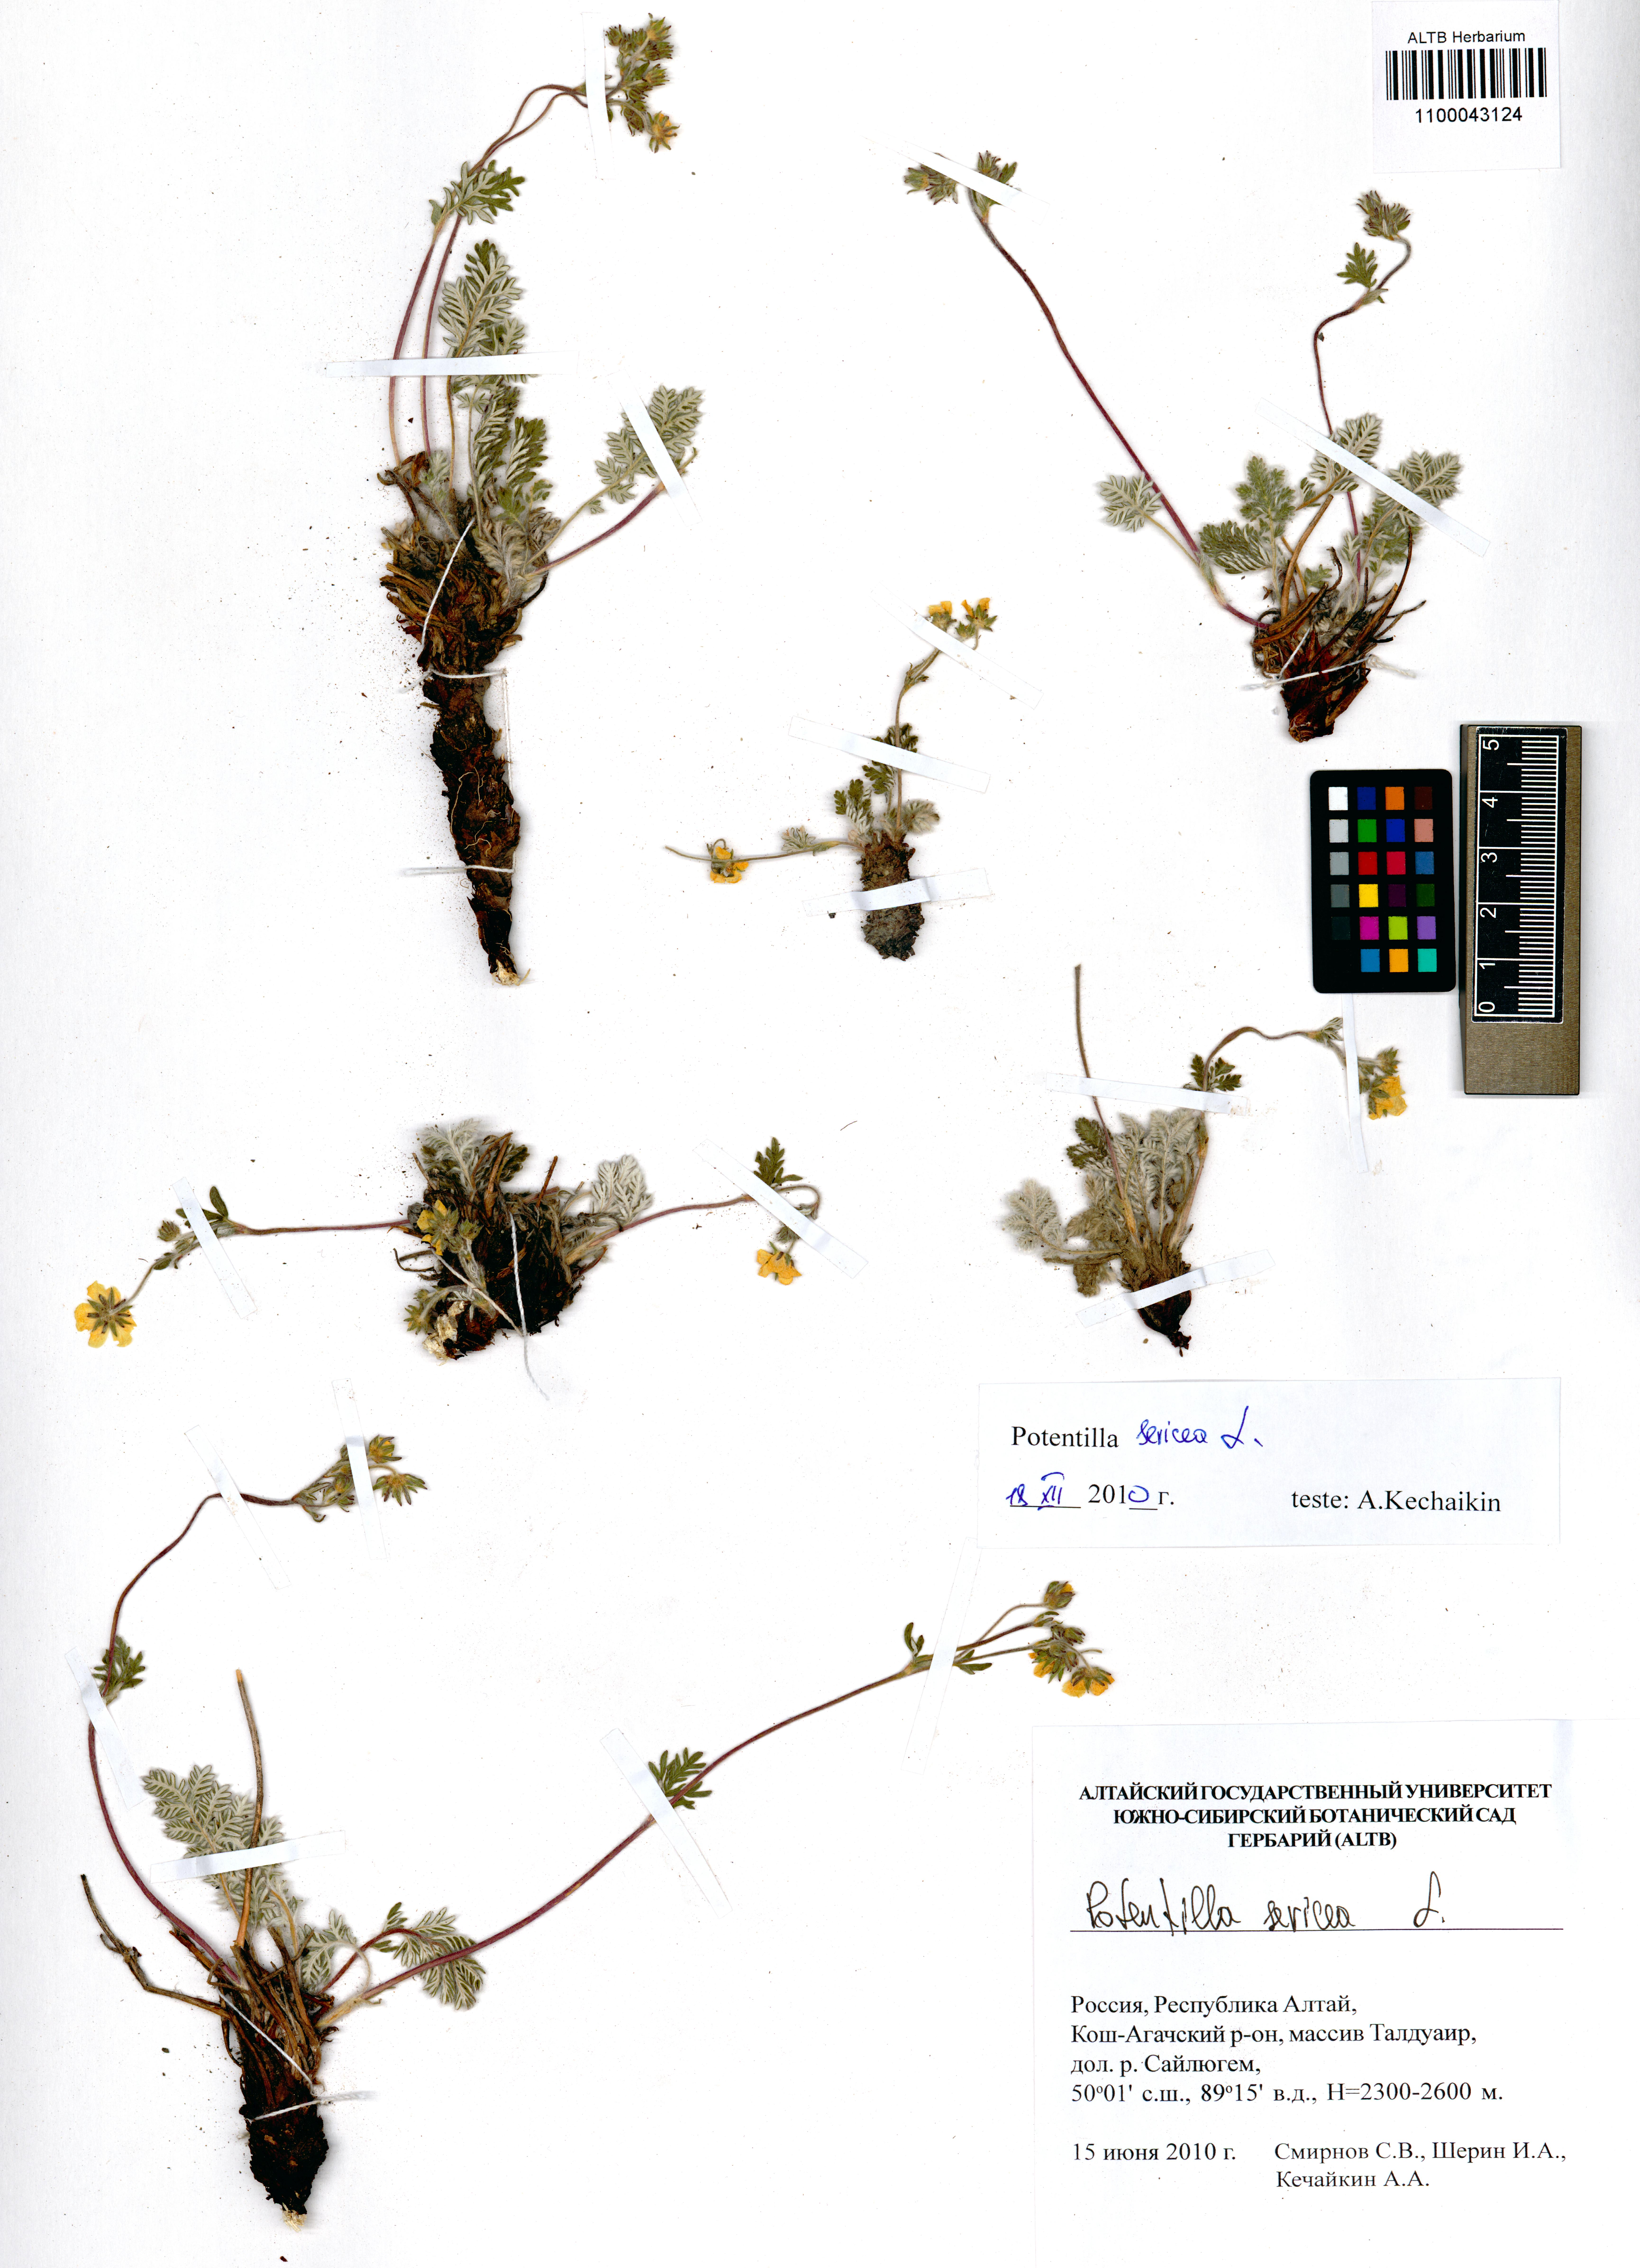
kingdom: Plantae
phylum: Tracheophyta
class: Magnoliopsida
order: Rosales
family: Rosaceae
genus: Potentilla
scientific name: Potentilla sericea
